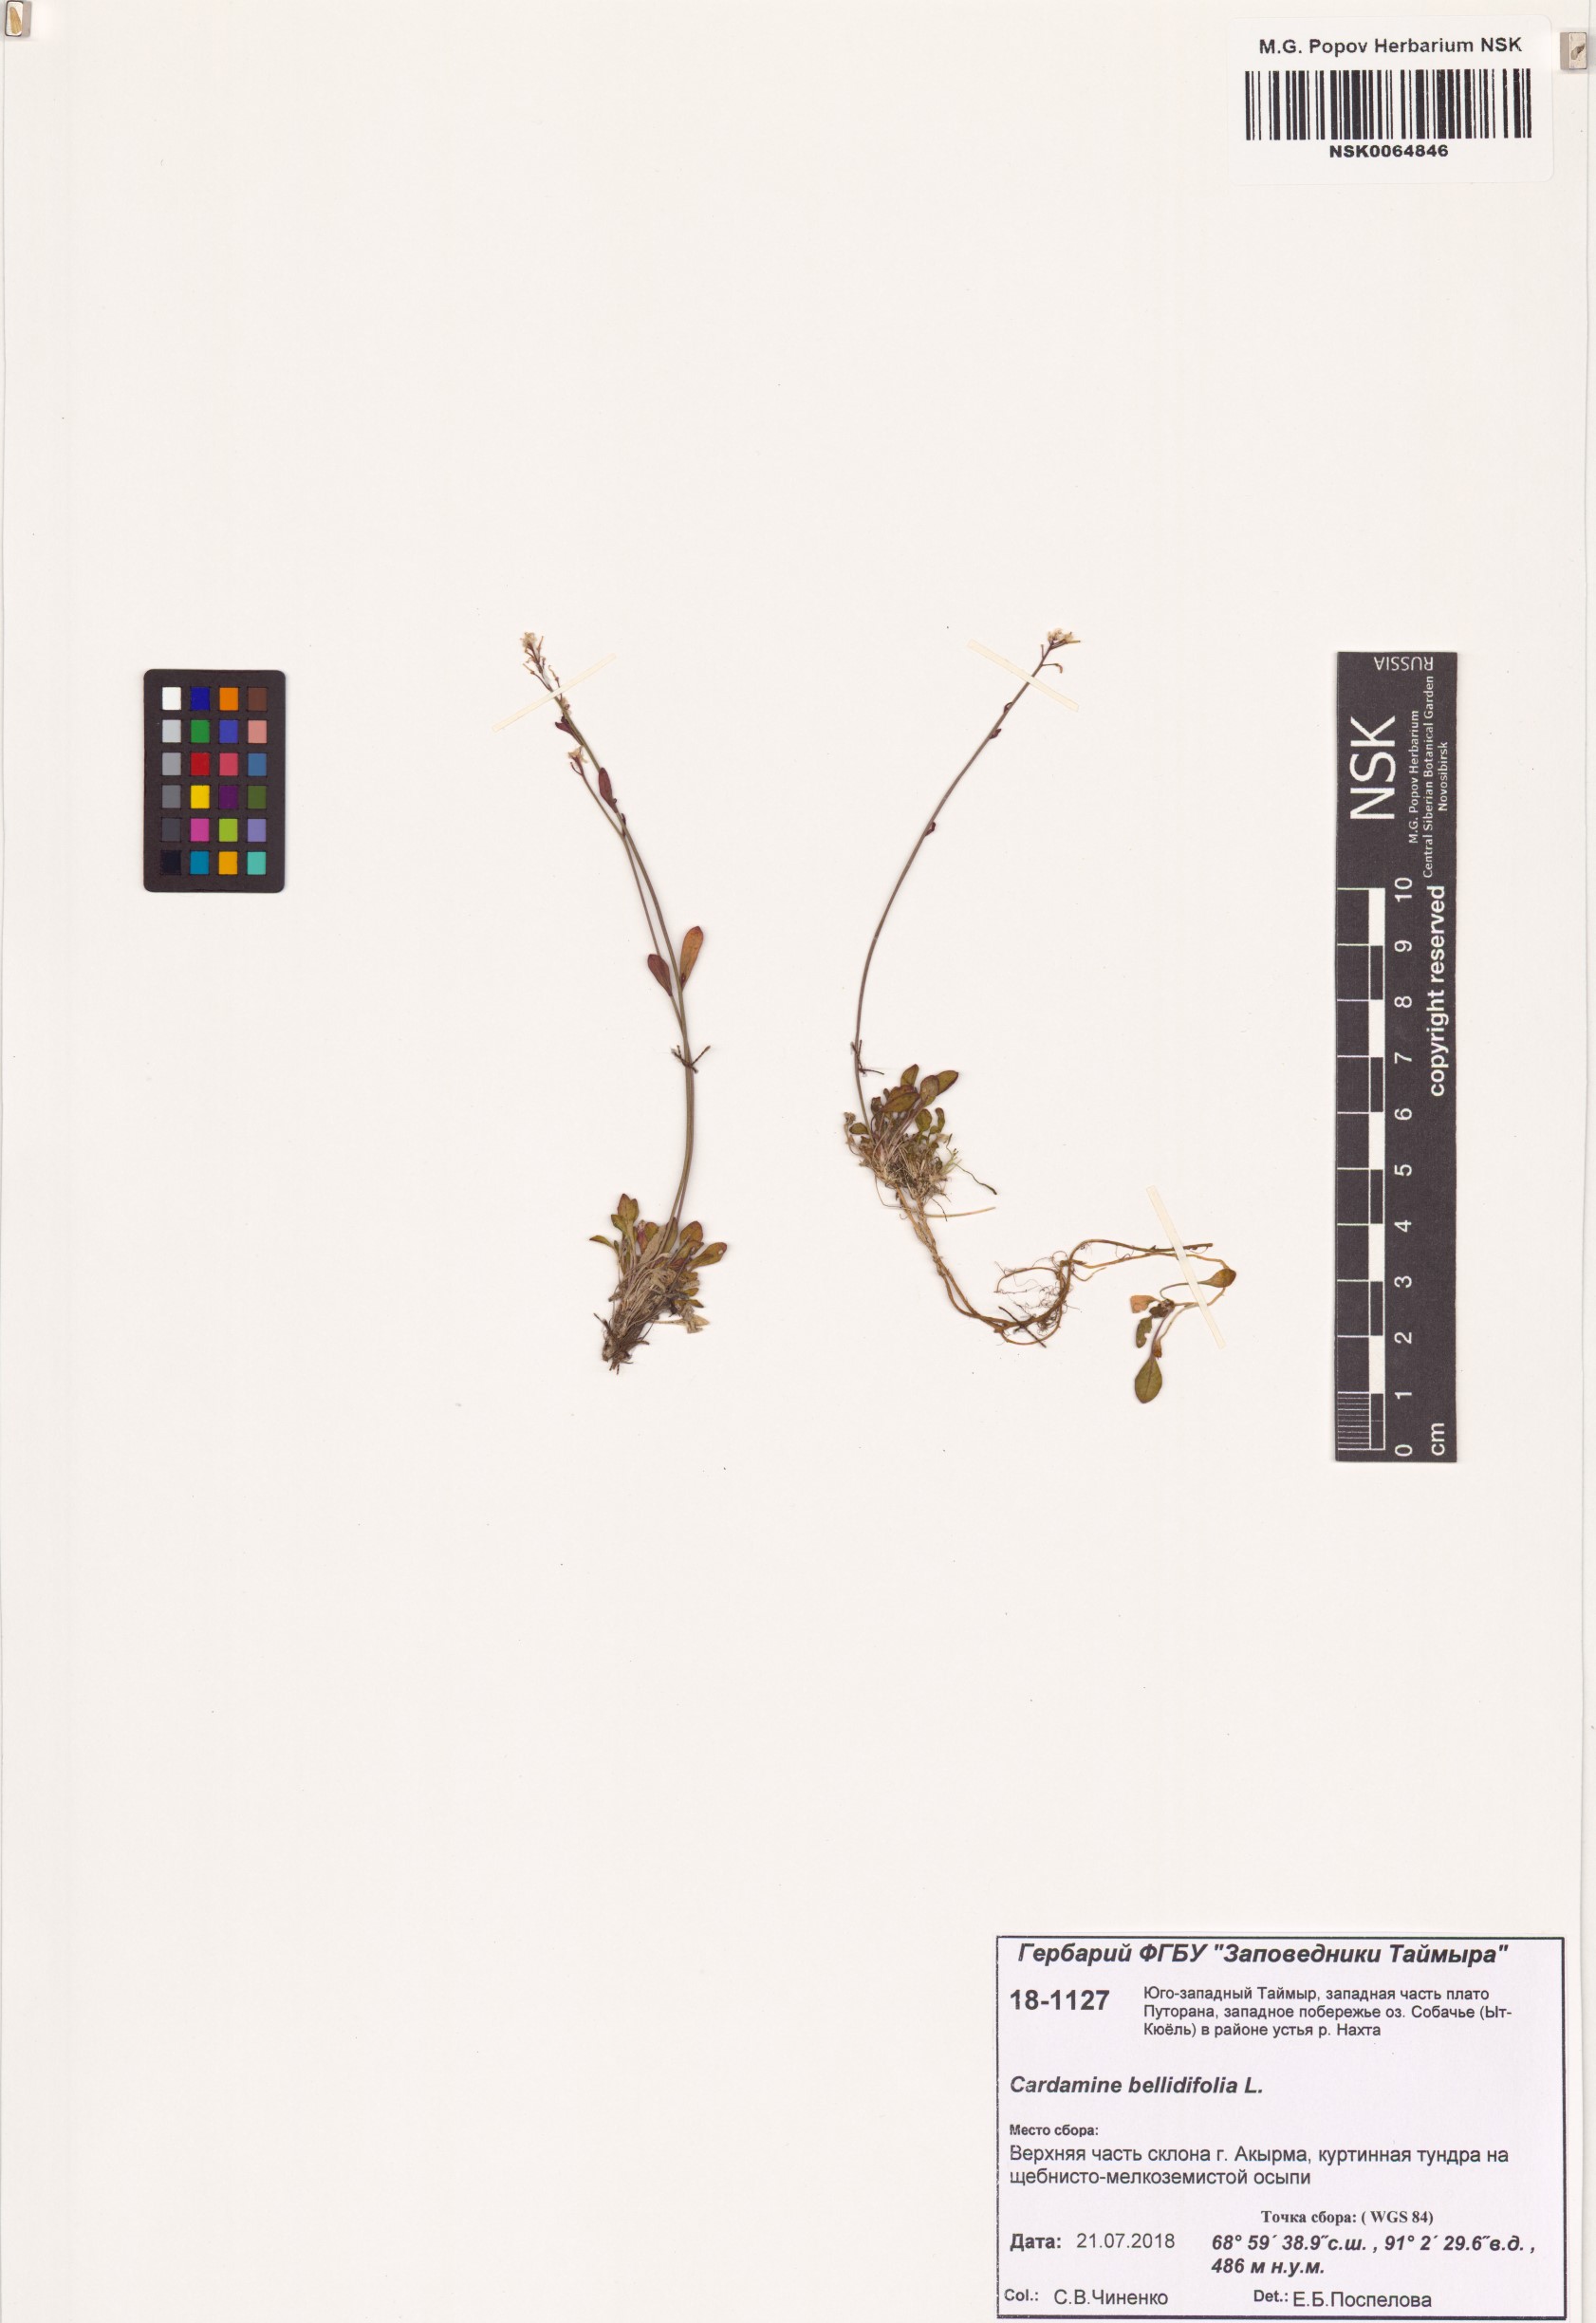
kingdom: Plantae
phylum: Tracheophyta
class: Magnoliopsida
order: Brassicales
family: Brassicaceae
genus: Cardamine
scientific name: Cardamine bellidifolia
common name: Alpine bittercress
